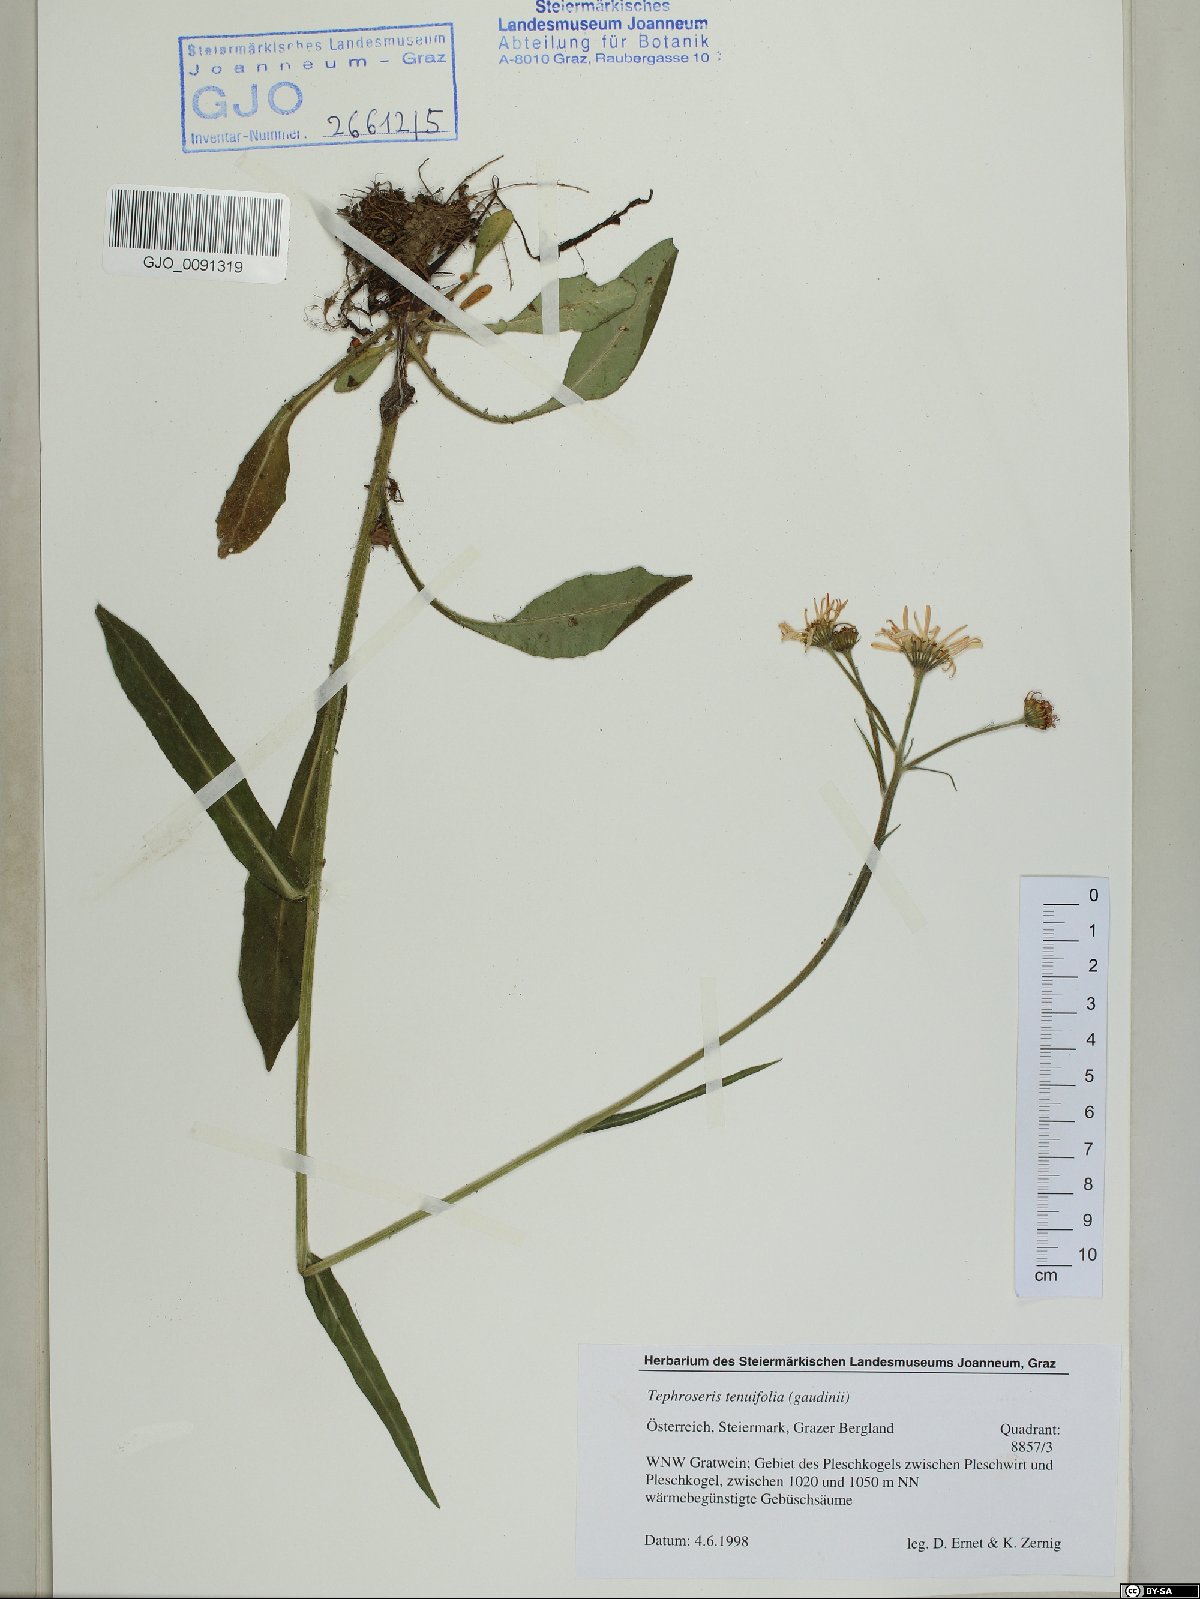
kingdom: Plantae
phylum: Tracheophyta
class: Magnoliopsida
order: Asterales
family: Asteraceae
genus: Tephroseris
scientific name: Tephroseris tenuifolia
